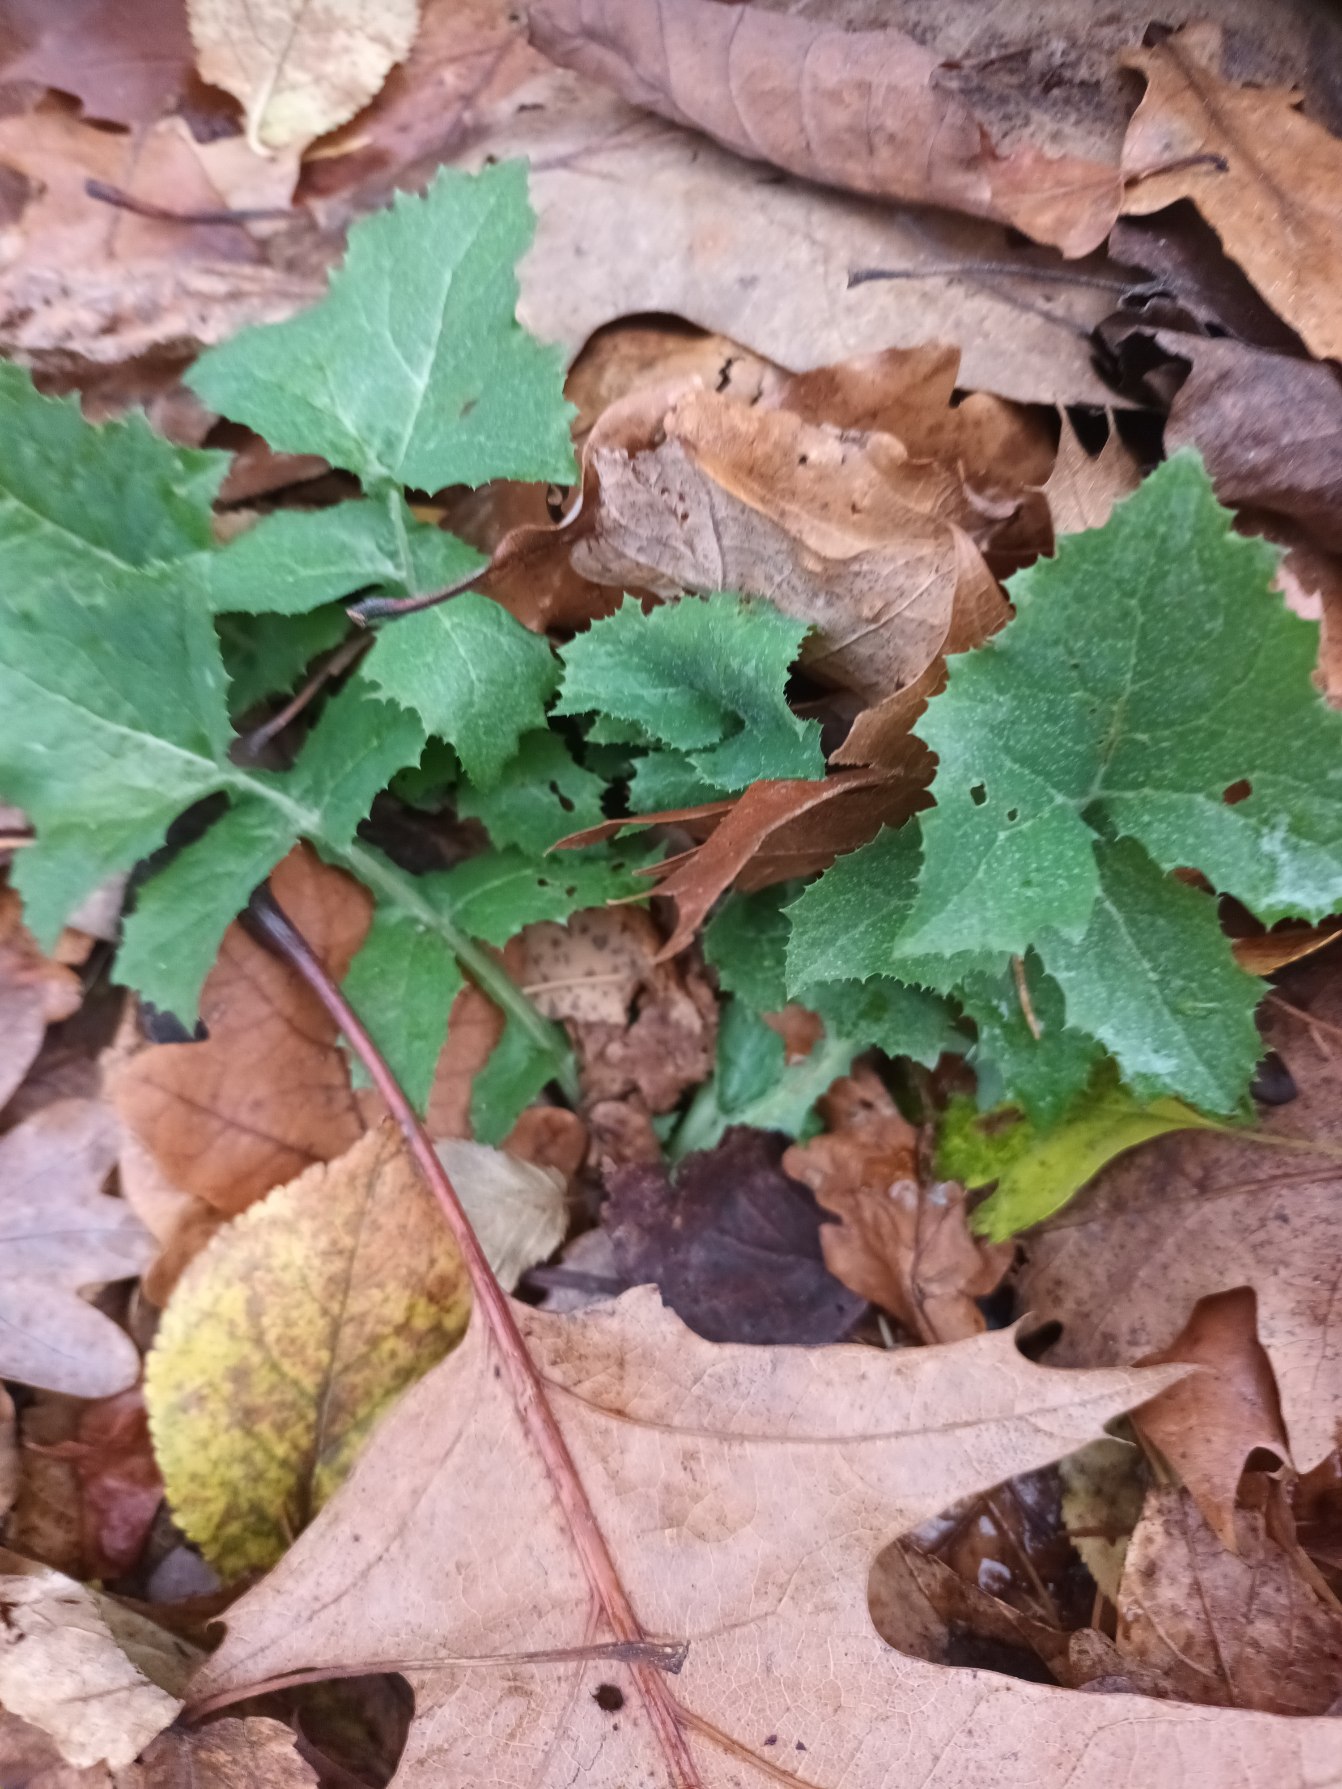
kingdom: Plantae
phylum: Tracheophyta
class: Magnoliopsida
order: Asterales
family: Asteraceae
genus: Sonchus
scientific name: Sonchus oleraceus
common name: Almindelig svinemælk
